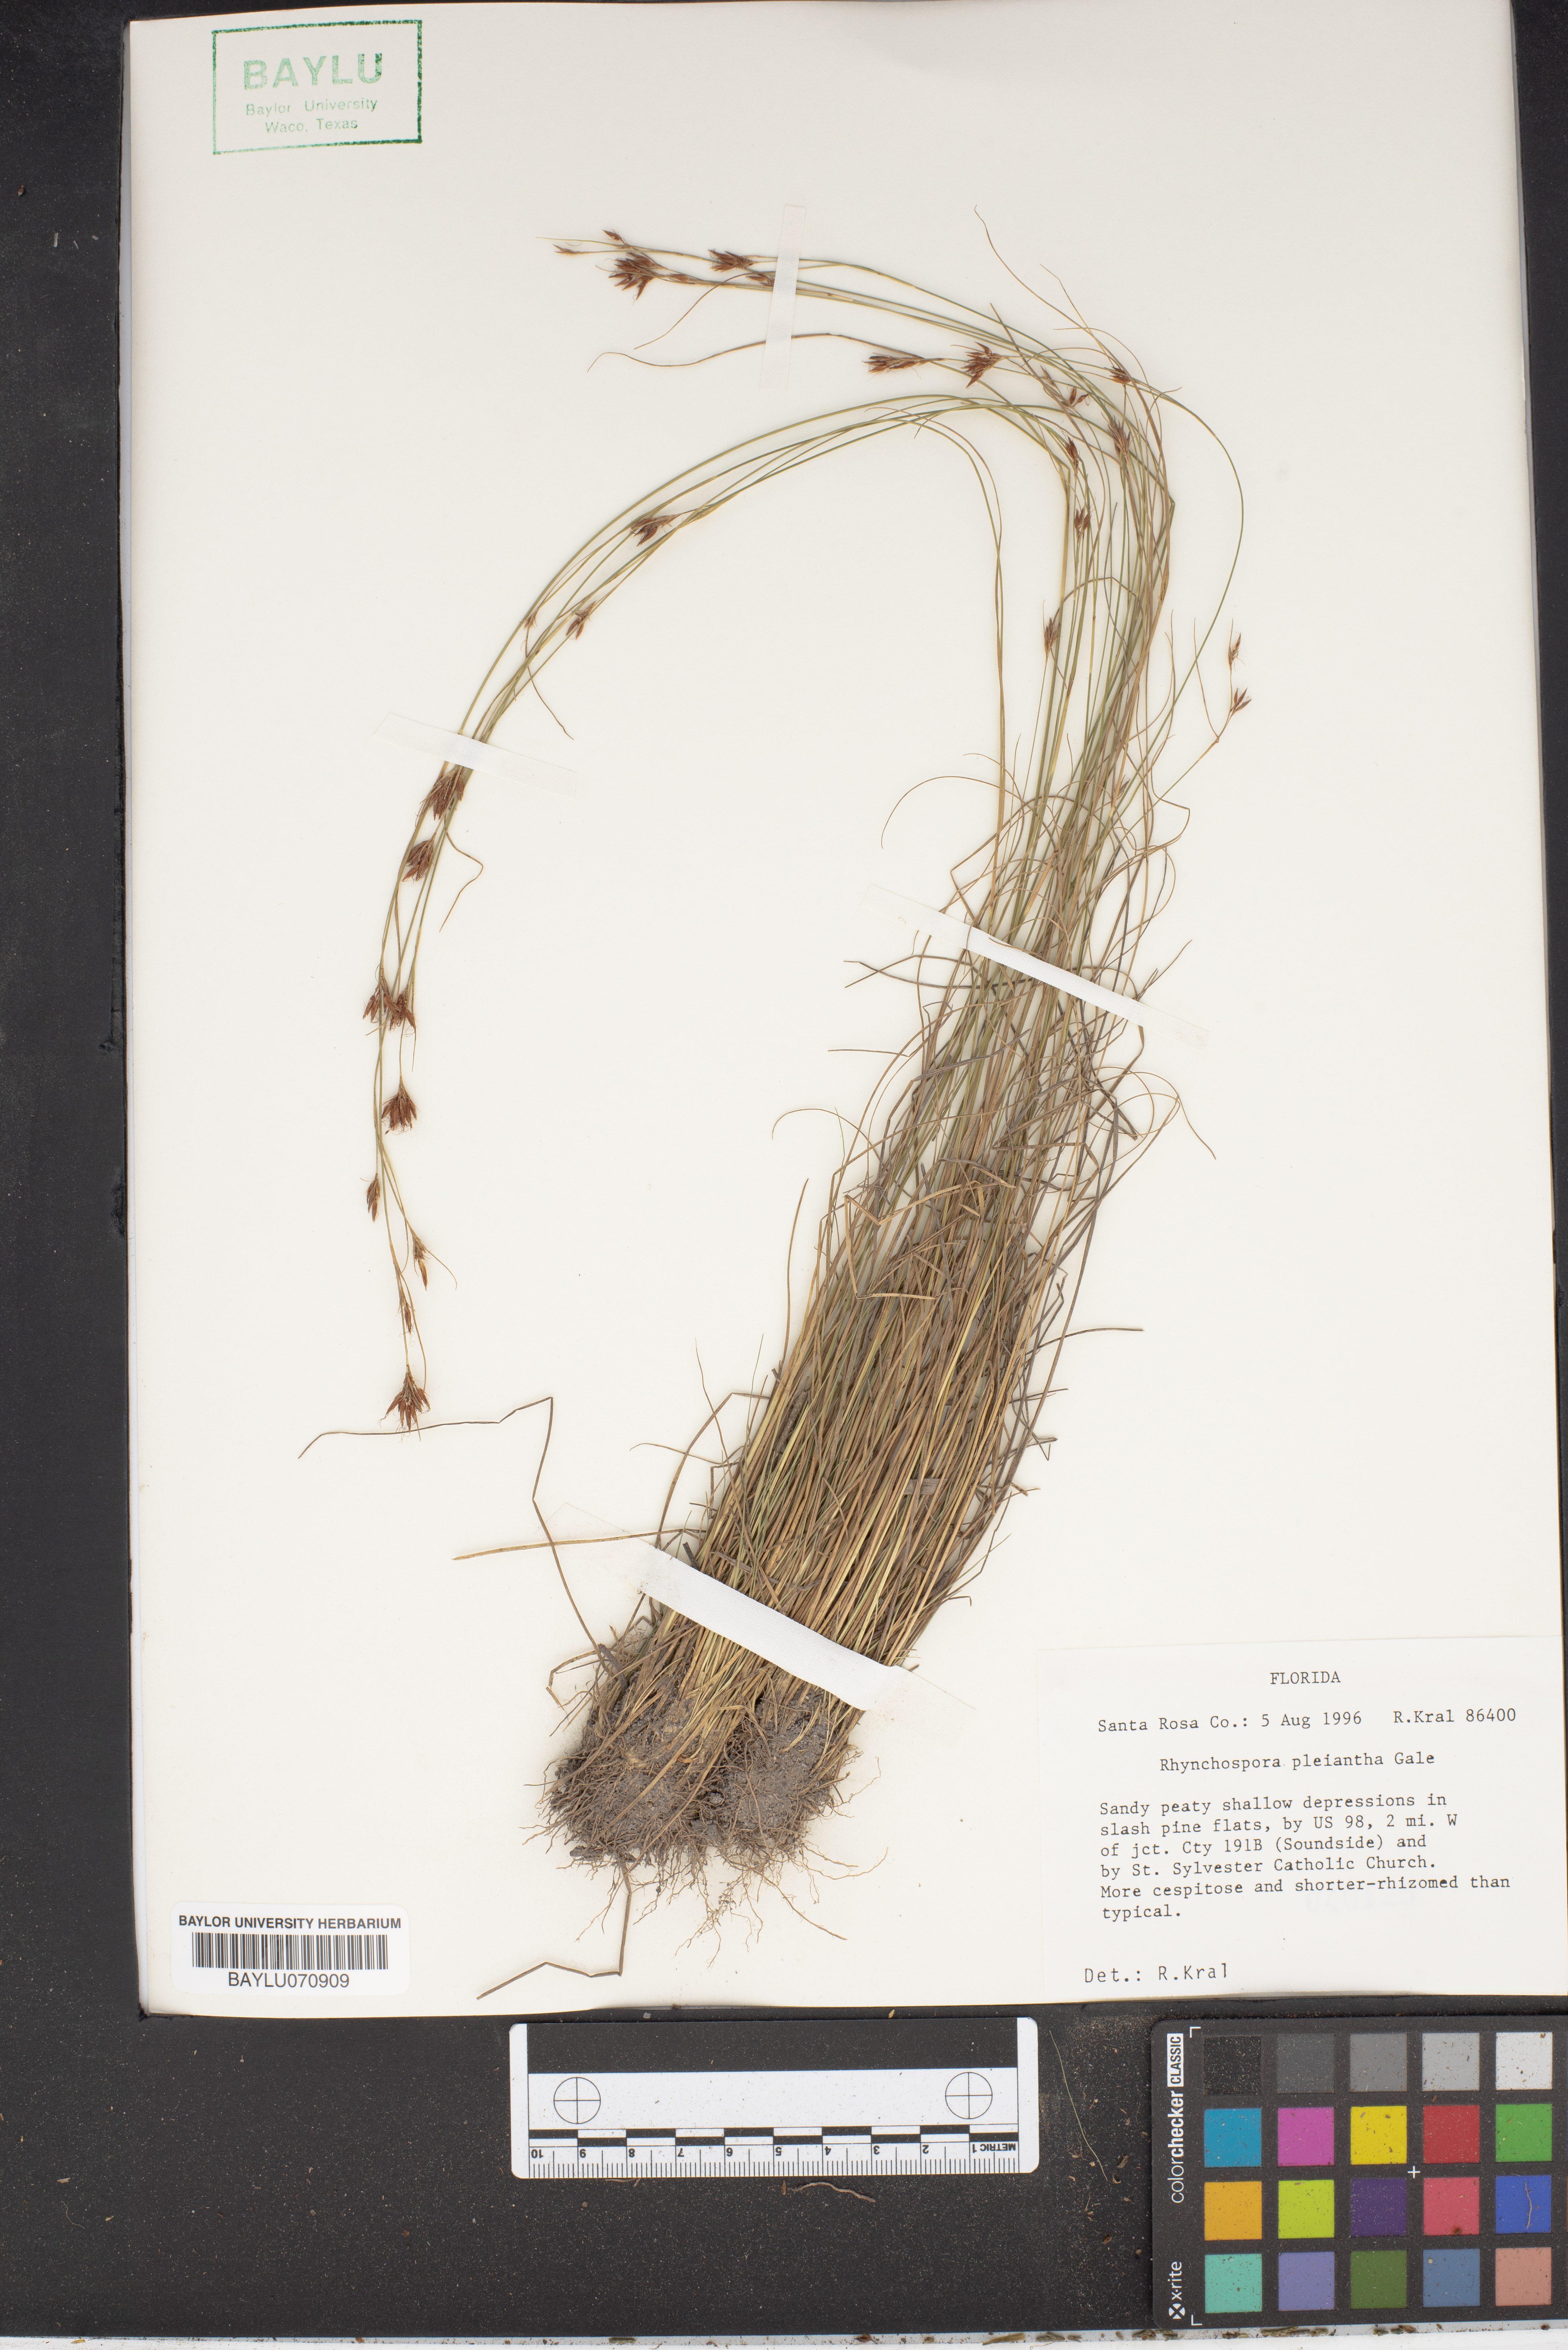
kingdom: Plantae
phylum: Tracheophyta
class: Liliopsida
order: Poales
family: Cyperaceae
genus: Rhynchospora
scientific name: Rhynchospora pleiantha
